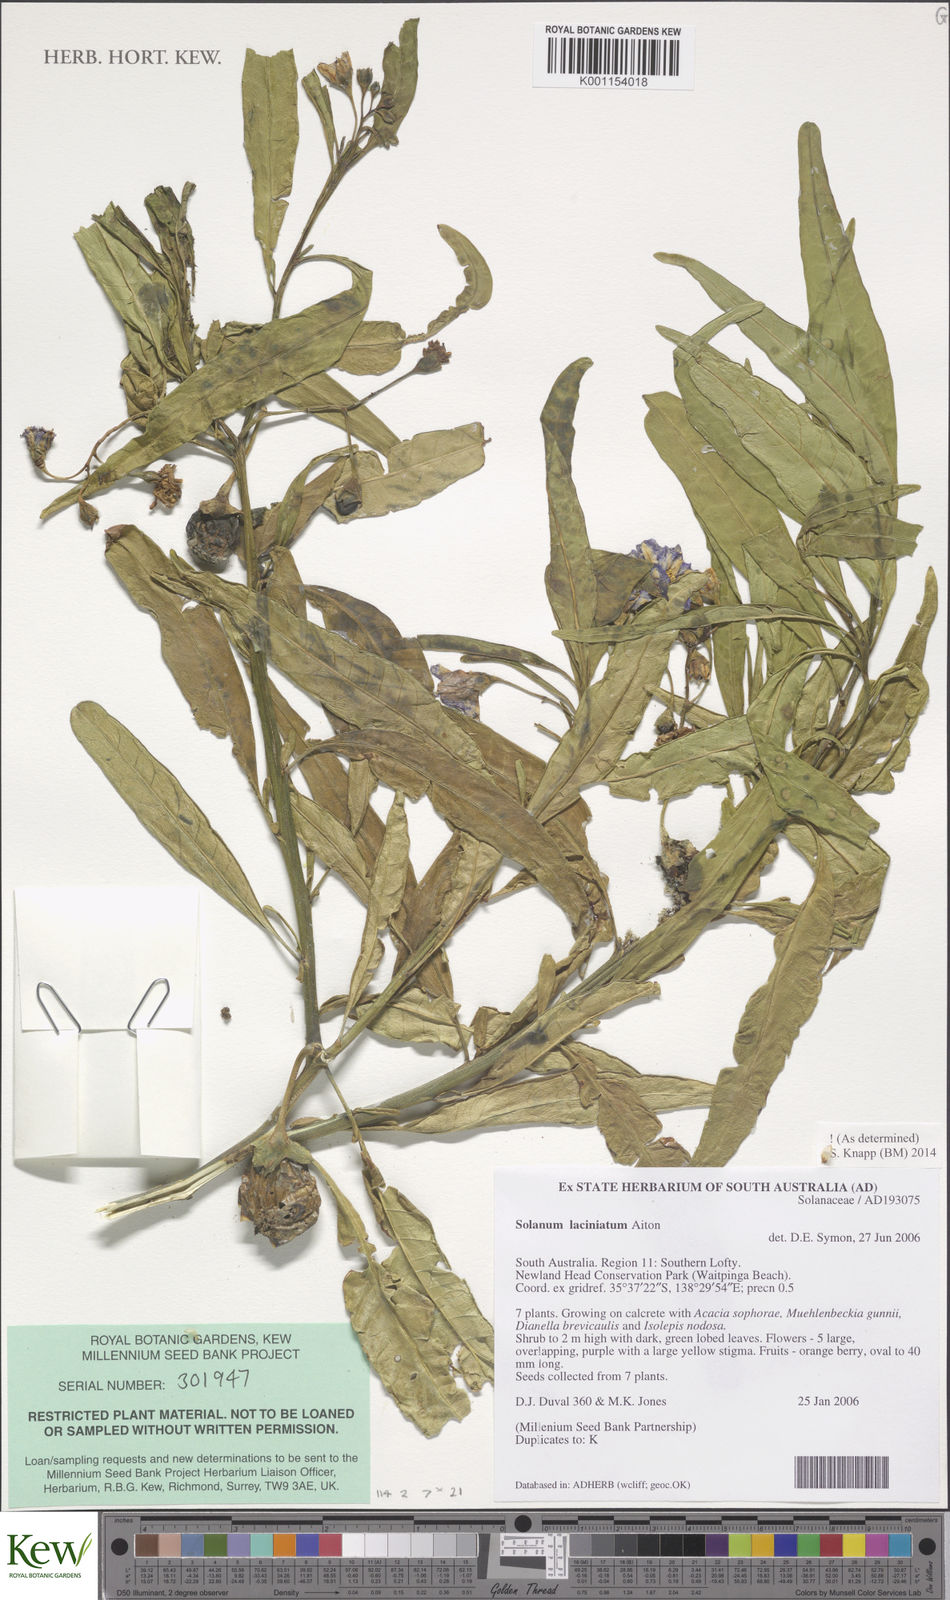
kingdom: Plantae
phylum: Tracheophyta
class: Magnoliopsida
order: Solanales
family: Solanaceae
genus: Solanum
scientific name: Solanum laciniatum
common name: Kangaroo-apple
